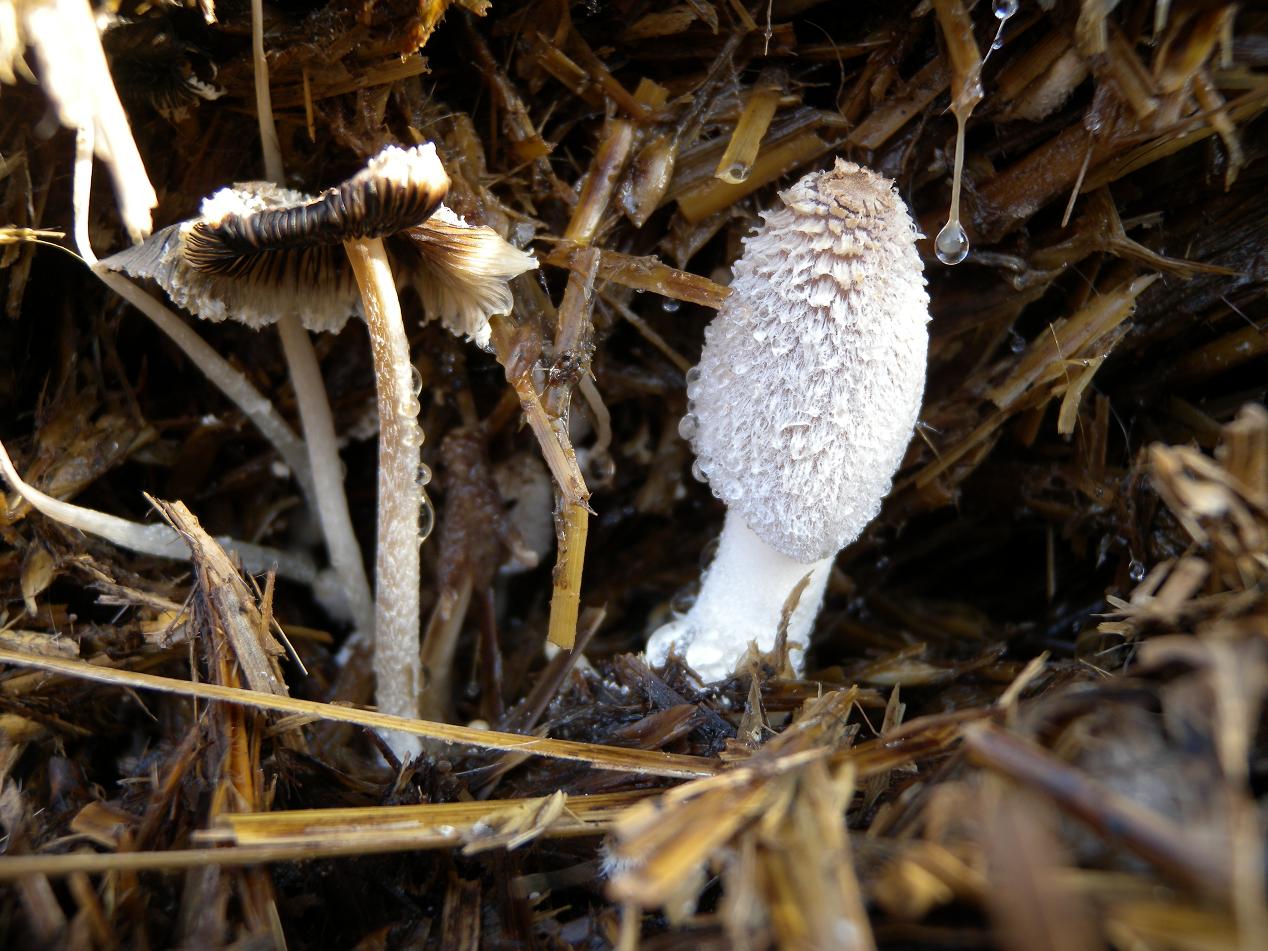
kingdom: Fungi
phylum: Basidiomycota
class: Agaricomycetes
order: Agaricales
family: Psathyrellaceae
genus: Coprinopsis
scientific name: Coprinopsis cinerea
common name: mødding-blækhat
